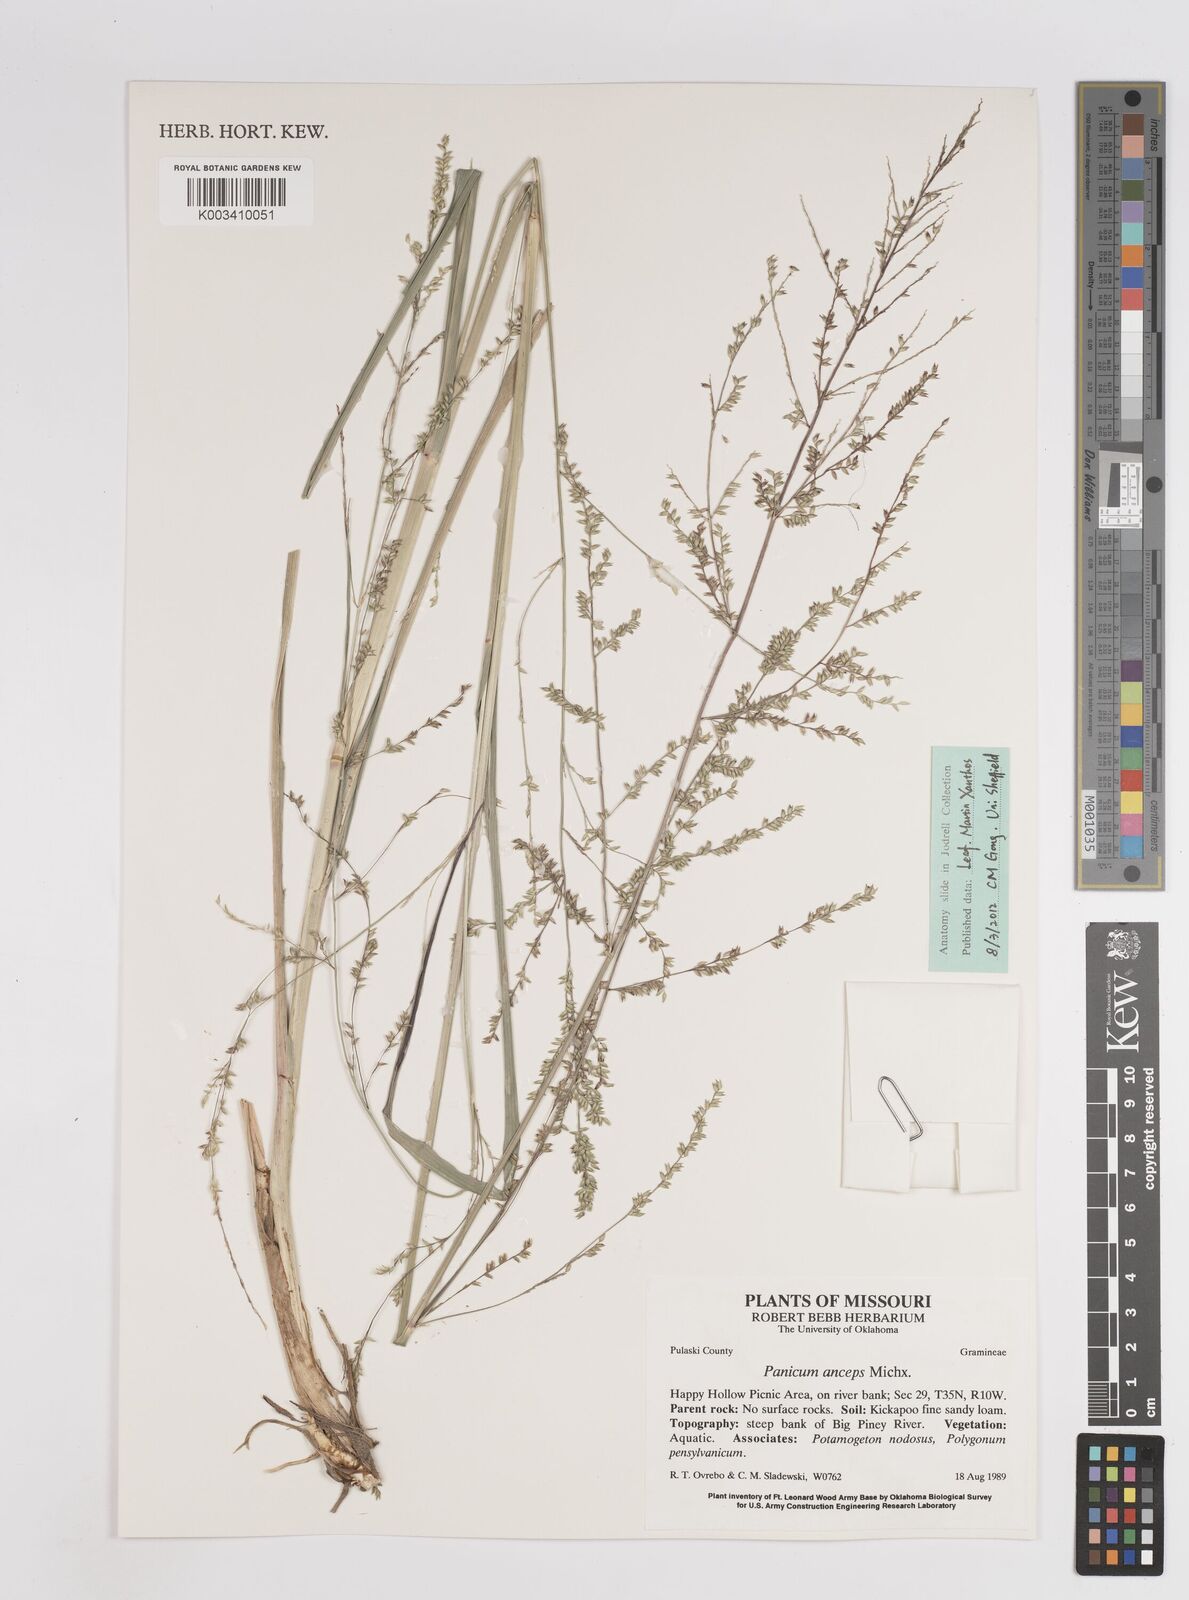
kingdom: Plantae
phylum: Tracheophyta
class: Liliopsida
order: Poales
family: Poaceae
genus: Coleataenia
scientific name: Coleataenia anceps
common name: Beaked panic grass
